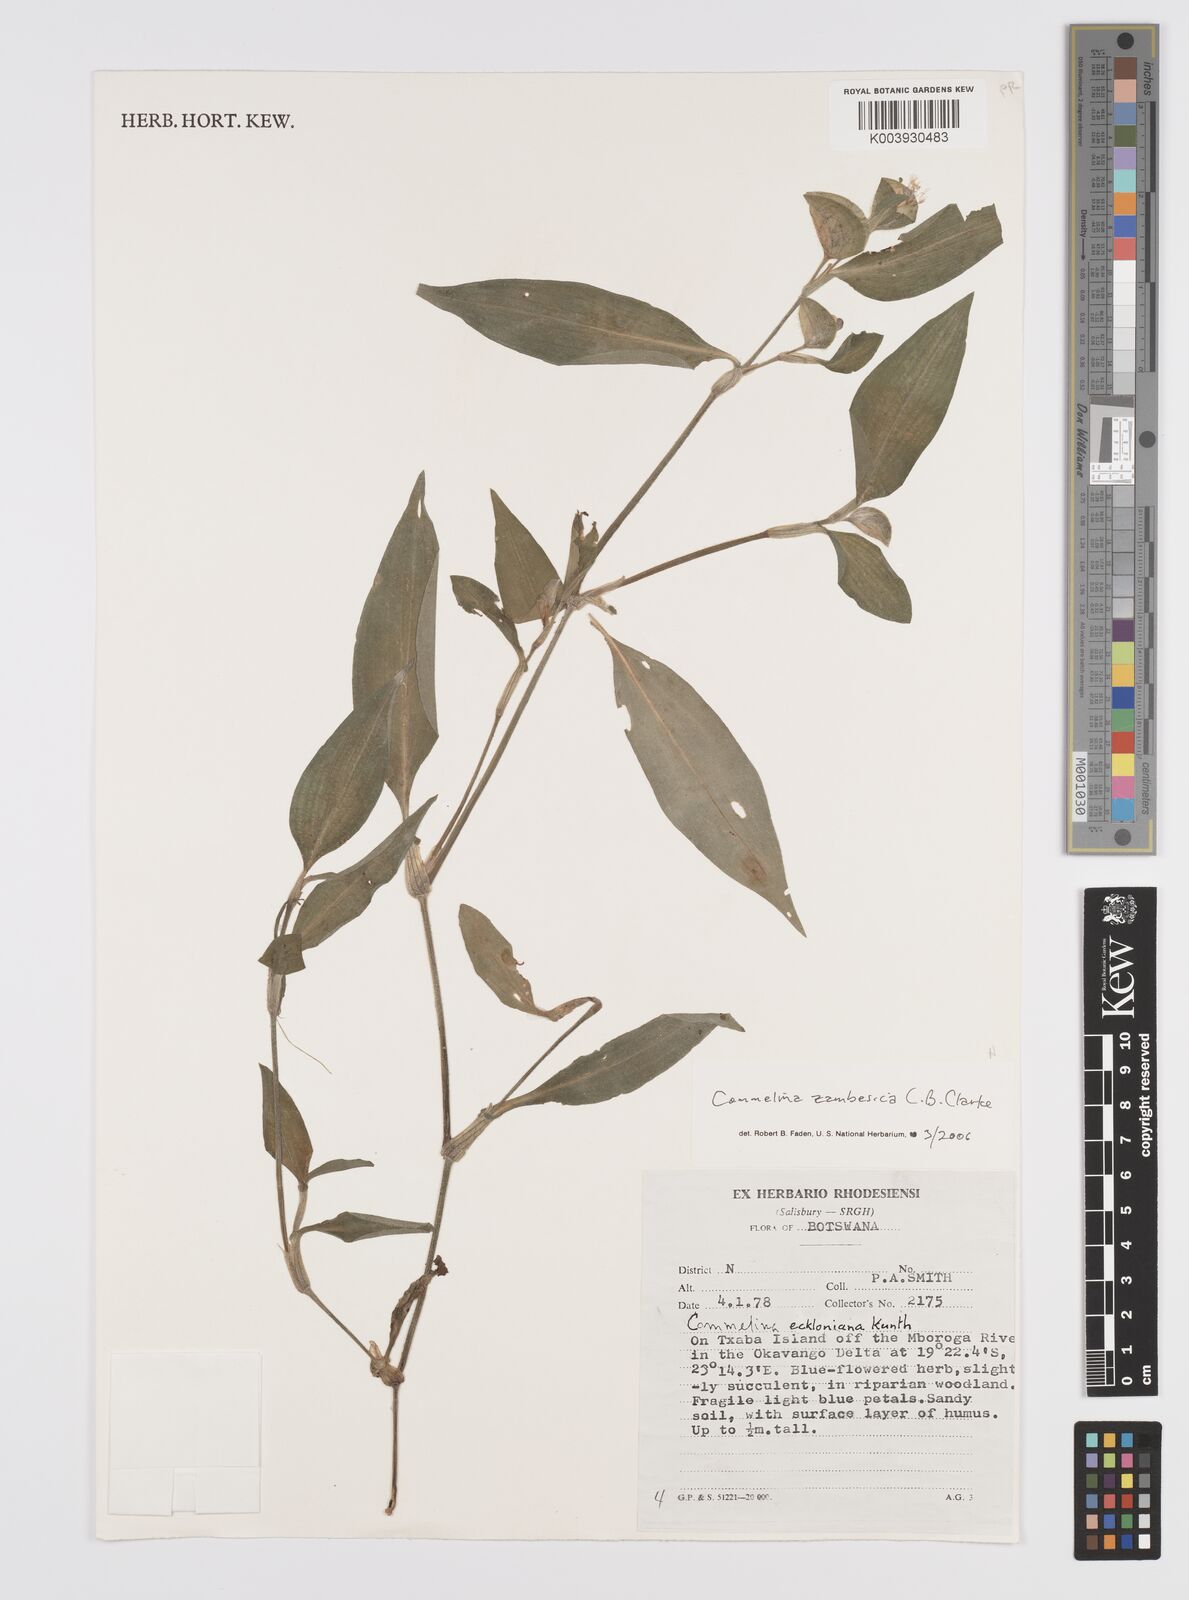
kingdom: Plantae
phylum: Tracheophyta
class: Liliopsida
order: Commelinales
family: Commelinaceae
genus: Commelina
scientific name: Commelina zambesica
